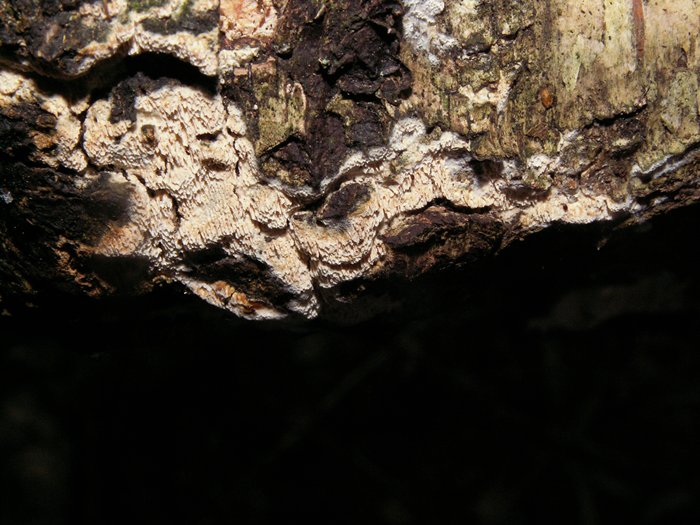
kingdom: Fungi
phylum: Basidiomycota
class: Agaricomycetes
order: Hymenochaetales
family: Schizoporaceae
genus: Schizopora
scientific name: Schizopora paradoxa
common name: hvid tandsvamp
